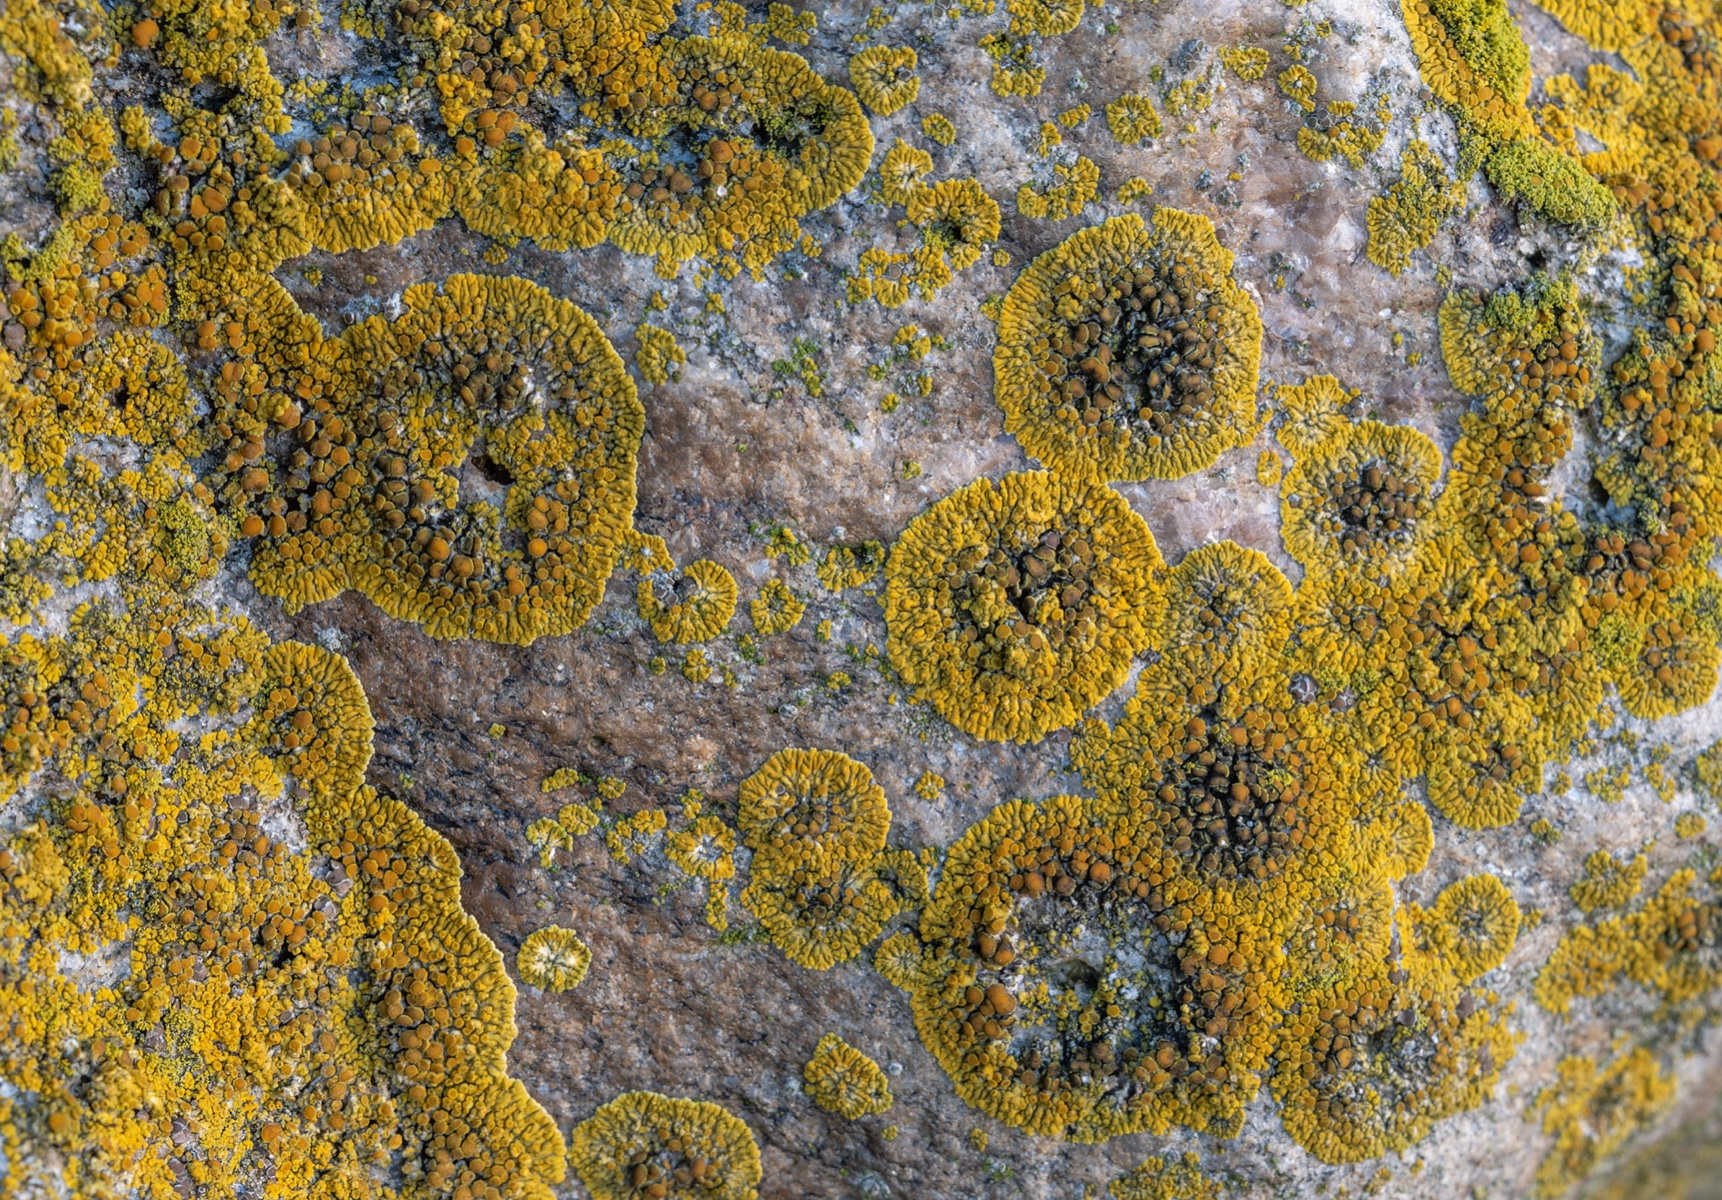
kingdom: Fungi
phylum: Ascomycota
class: Lecanoromycetes
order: Teloschistales
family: Teloschistaceae
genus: Athallia
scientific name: Athallia scopularis
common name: klippe-orangelav
